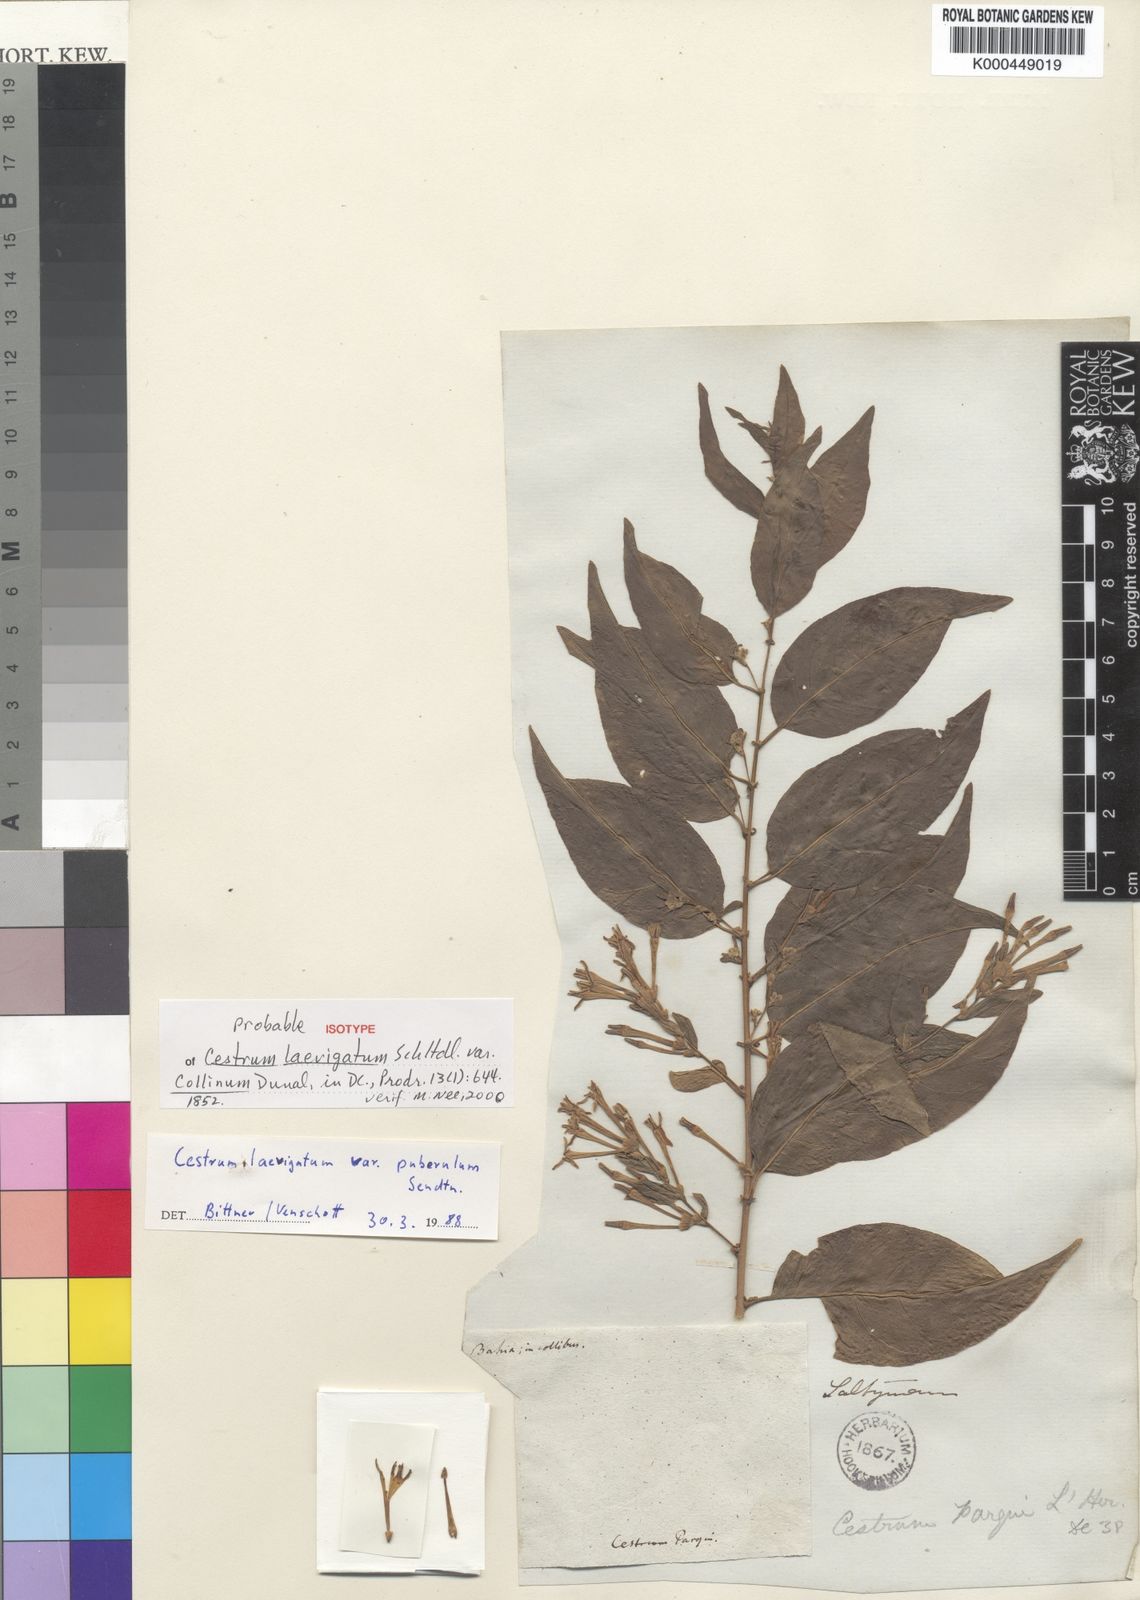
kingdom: Plantae
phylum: Tracheophyta
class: Magnoliopsida
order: Solanales
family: Solanaceae
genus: Cestrum
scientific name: Cestrum laevigatum
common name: Inkberry
